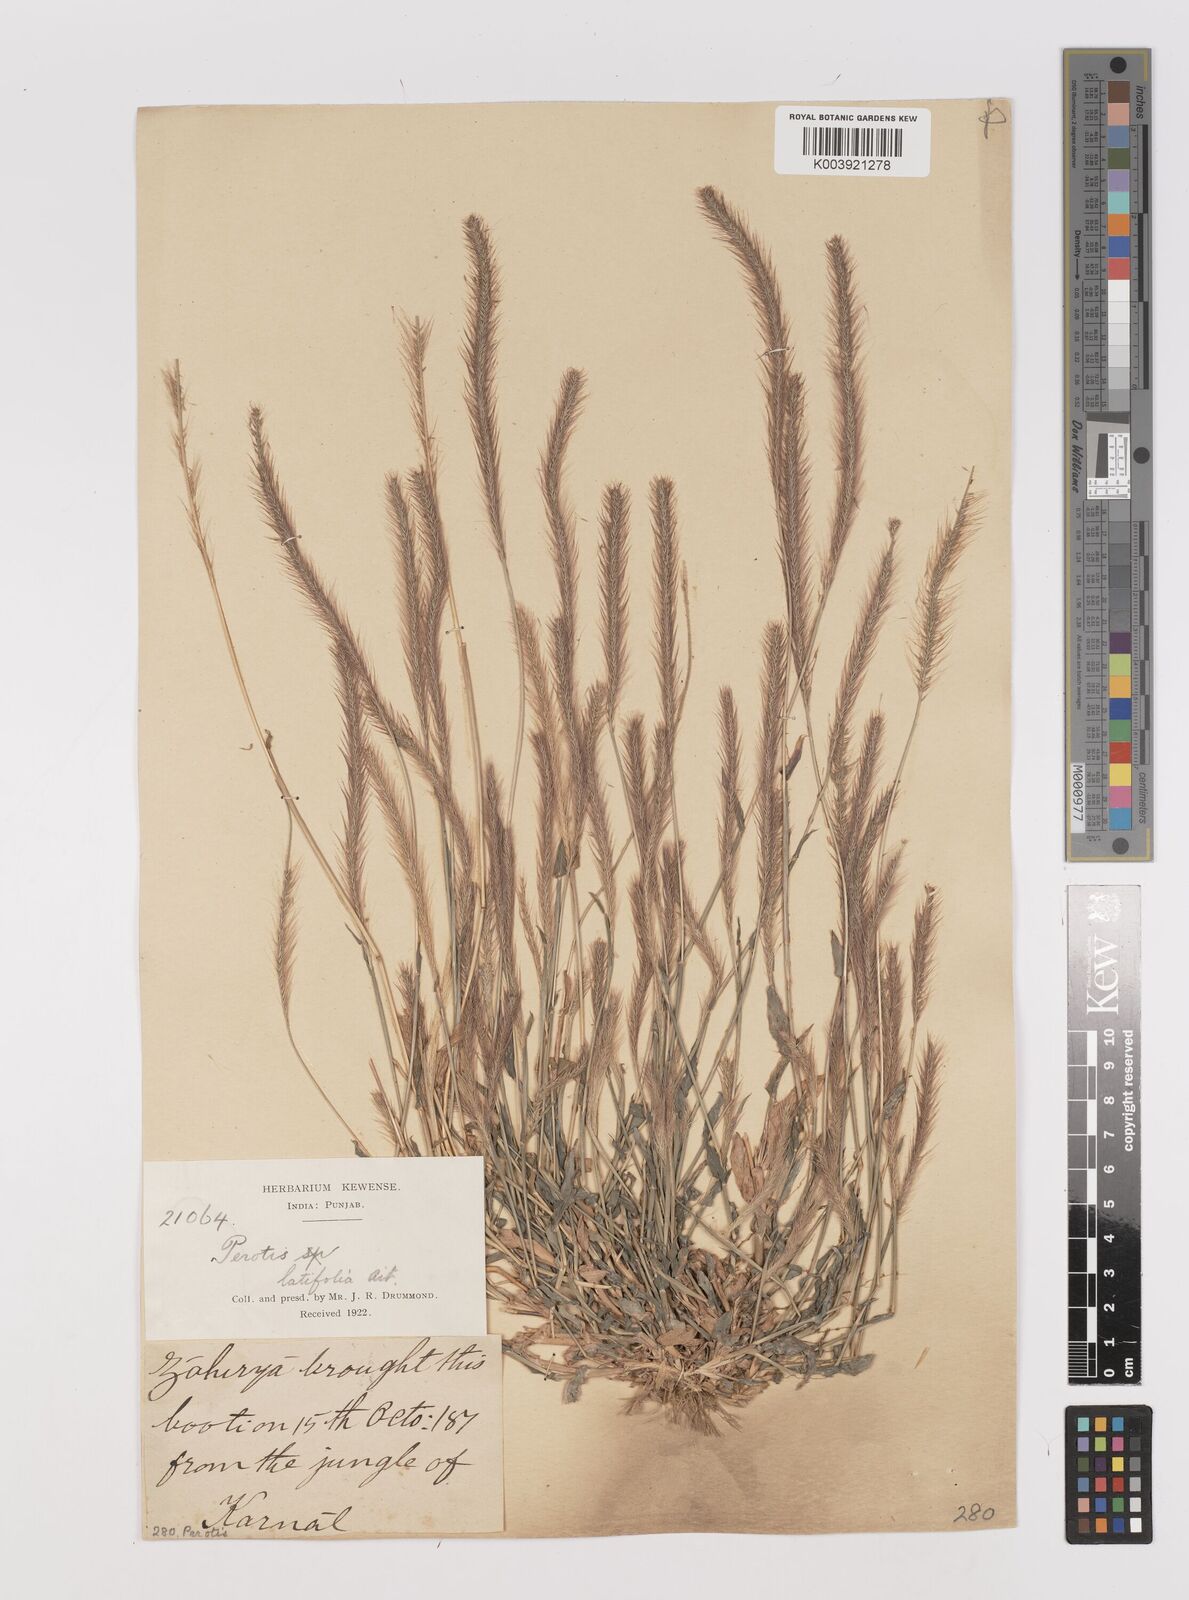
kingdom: Plantae
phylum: Tracheophyta
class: Liliopsida
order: Poales
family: Poaceae
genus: Perotis
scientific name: Perotis hordeiformis
